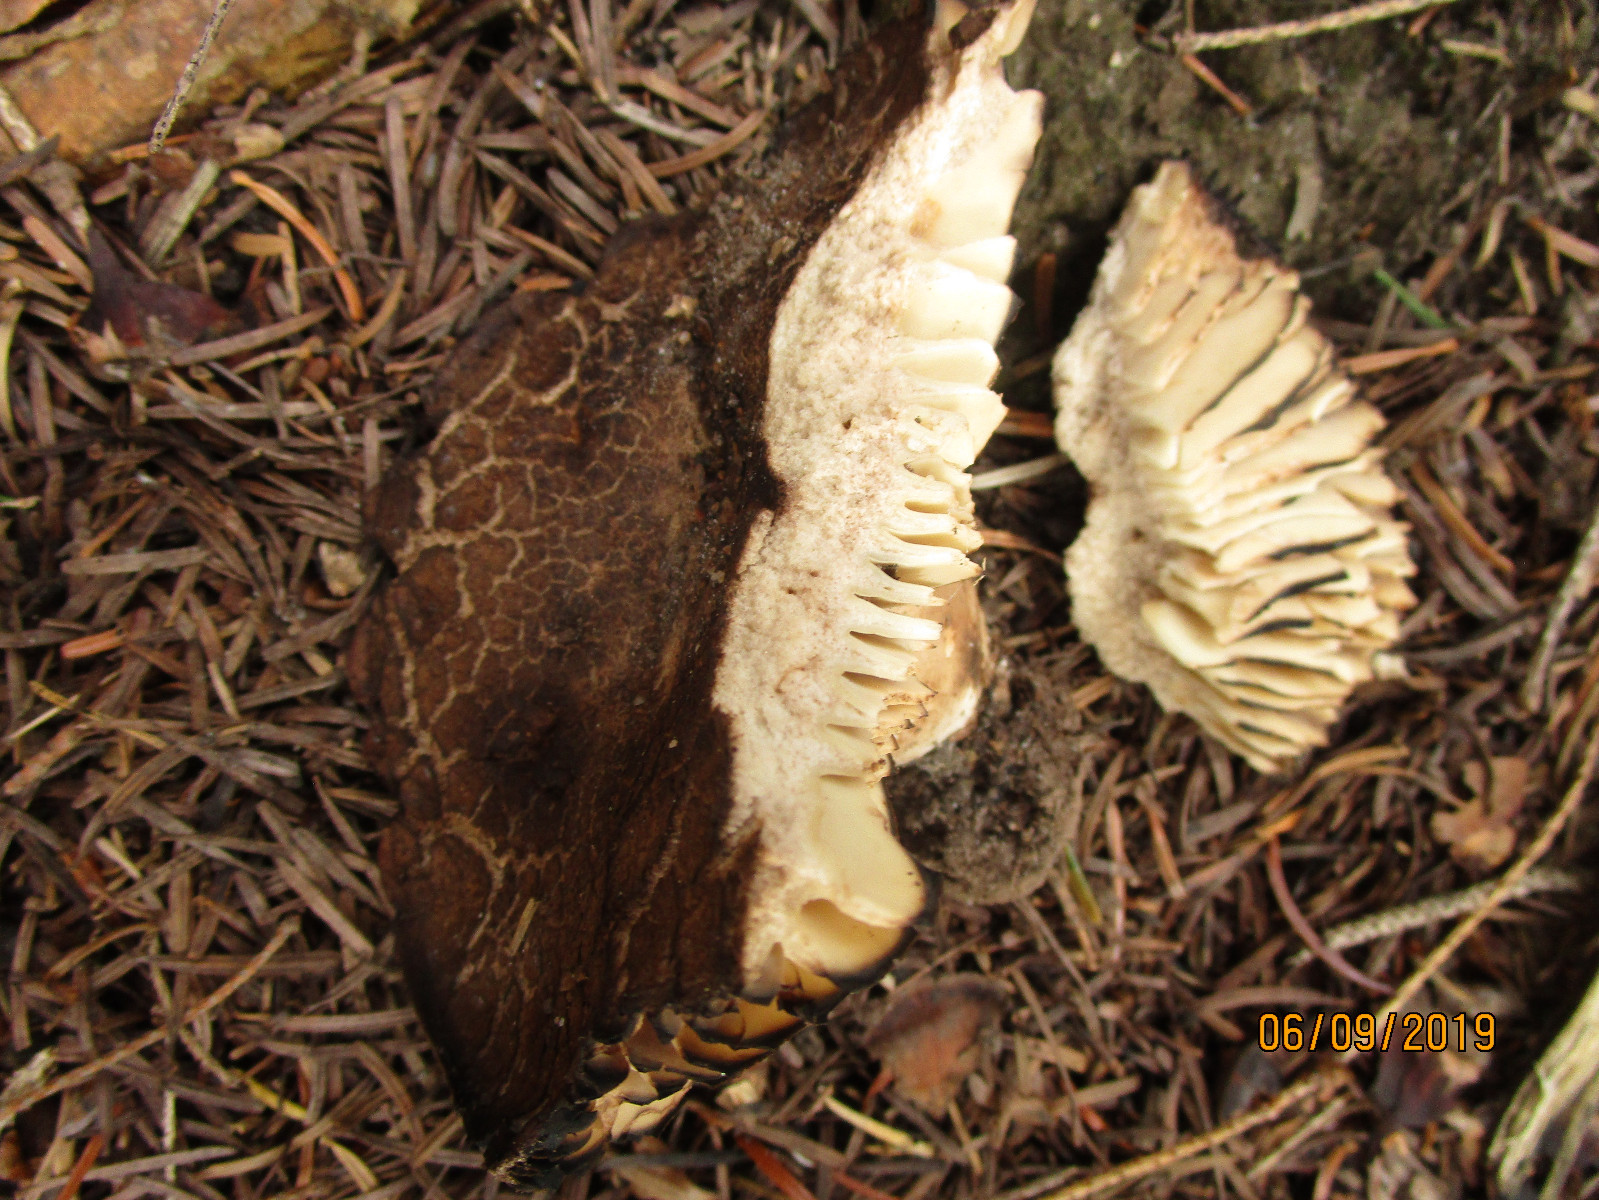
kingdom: Fungi
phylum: Basidiomycota
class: Agaricomycetes
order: Russulales
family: Russulaceae
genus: Russula
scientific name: Russula adusta
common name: sværtende skørhat
